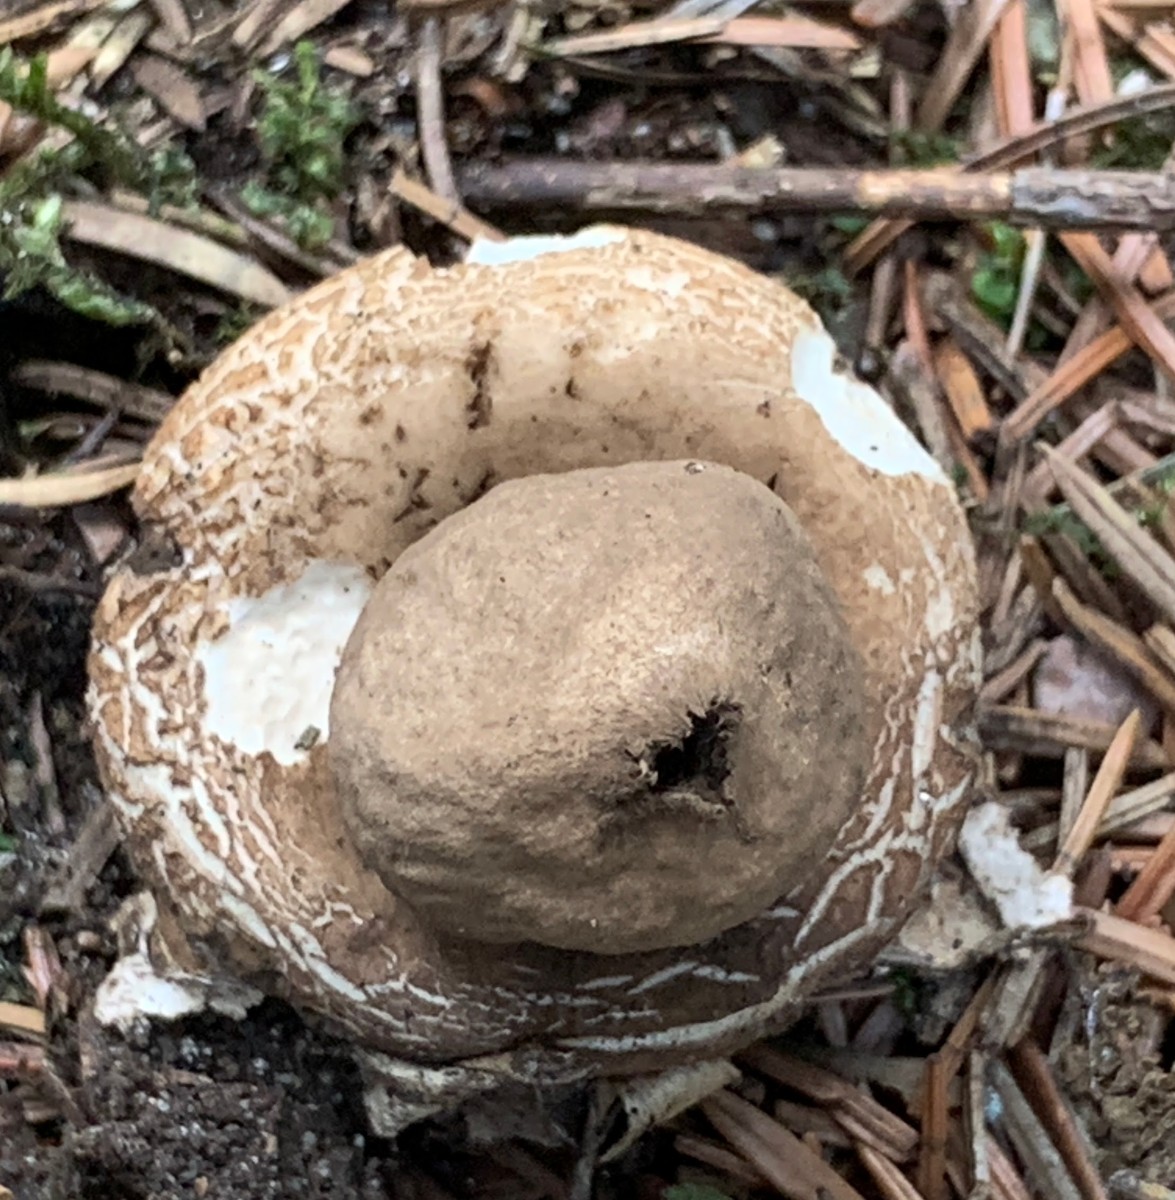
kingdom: Fungi
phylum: Basidiomycota
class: Agaricomycetes
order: Geastrales
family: Geastraceae
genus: Geastrum
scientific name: Geastrum michelianum
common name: kødet stjernebold
